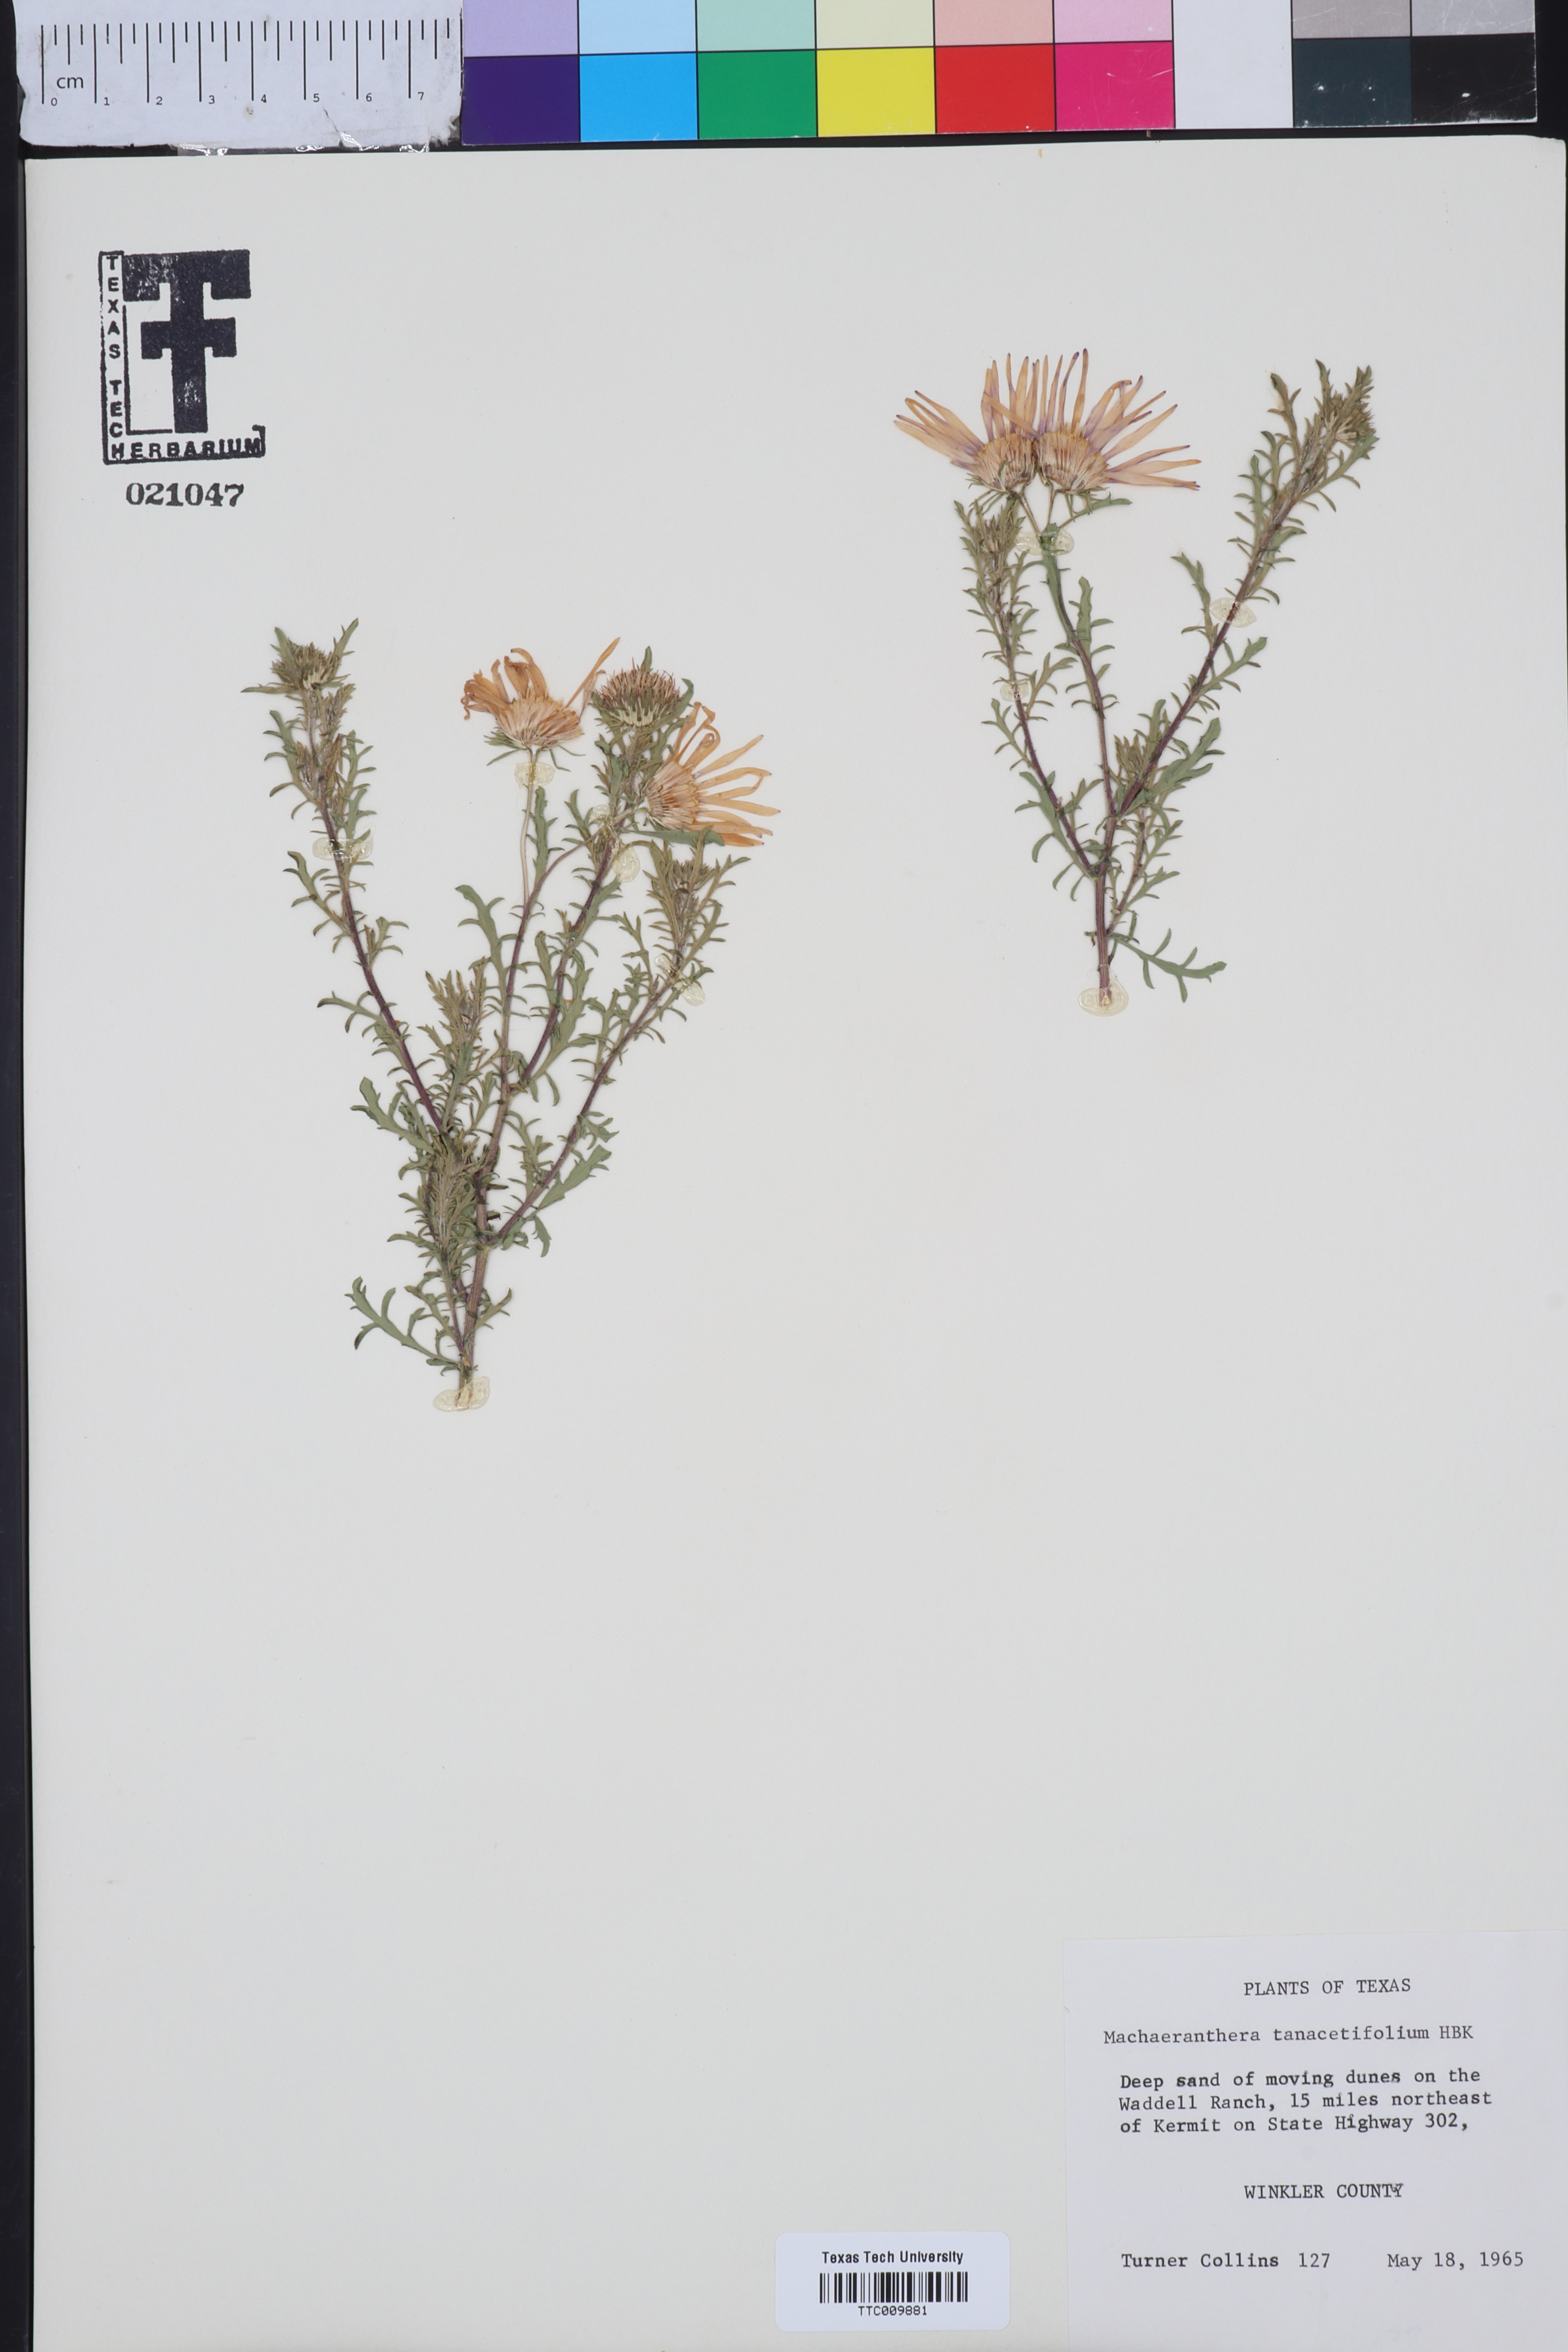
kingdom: Plantae
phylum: Tracheophyta
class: Magnoliopsida
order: Asterales
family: Asteraceae
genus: Machaeranthera
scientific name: Machaeranthera tanacetifolia
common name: Tansy-aster
